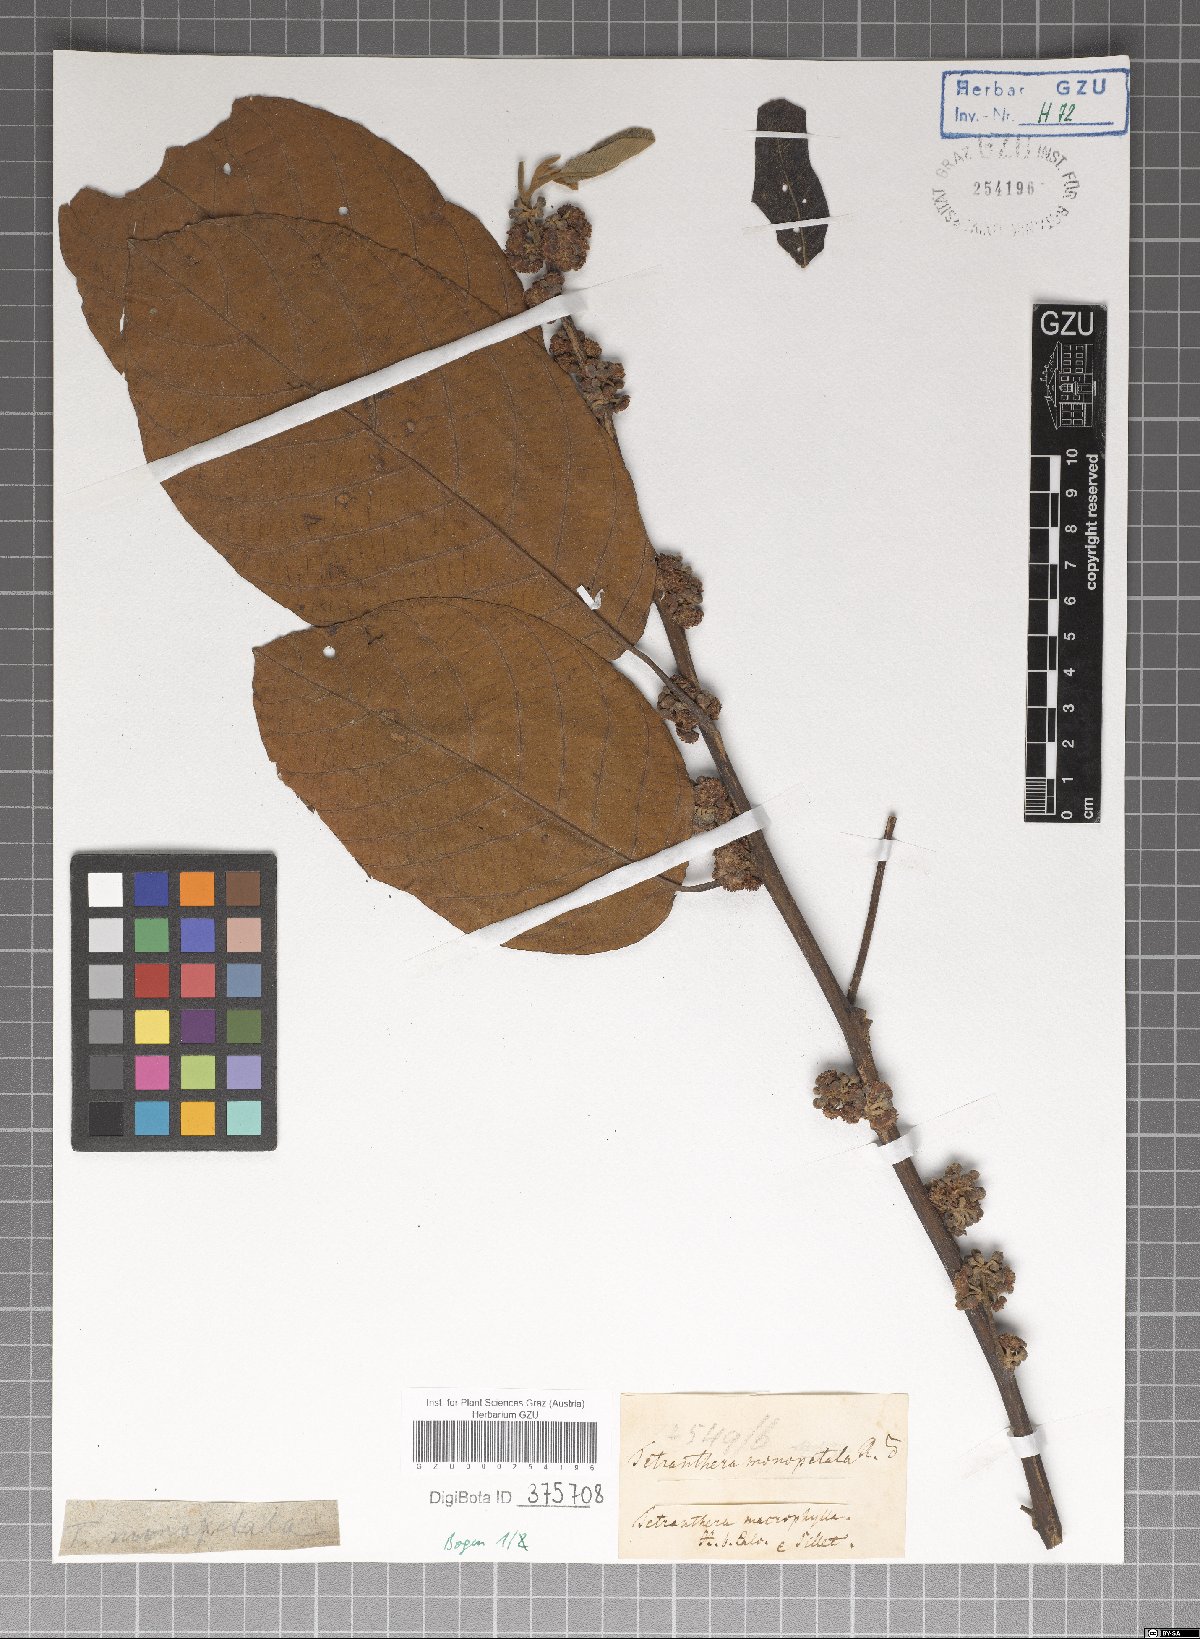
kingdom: Plantae
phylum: Tracheophyta
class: Magnoliopsida
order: Laurales
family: Lauraceae
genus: Litsea
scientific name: Litsea monopetala
